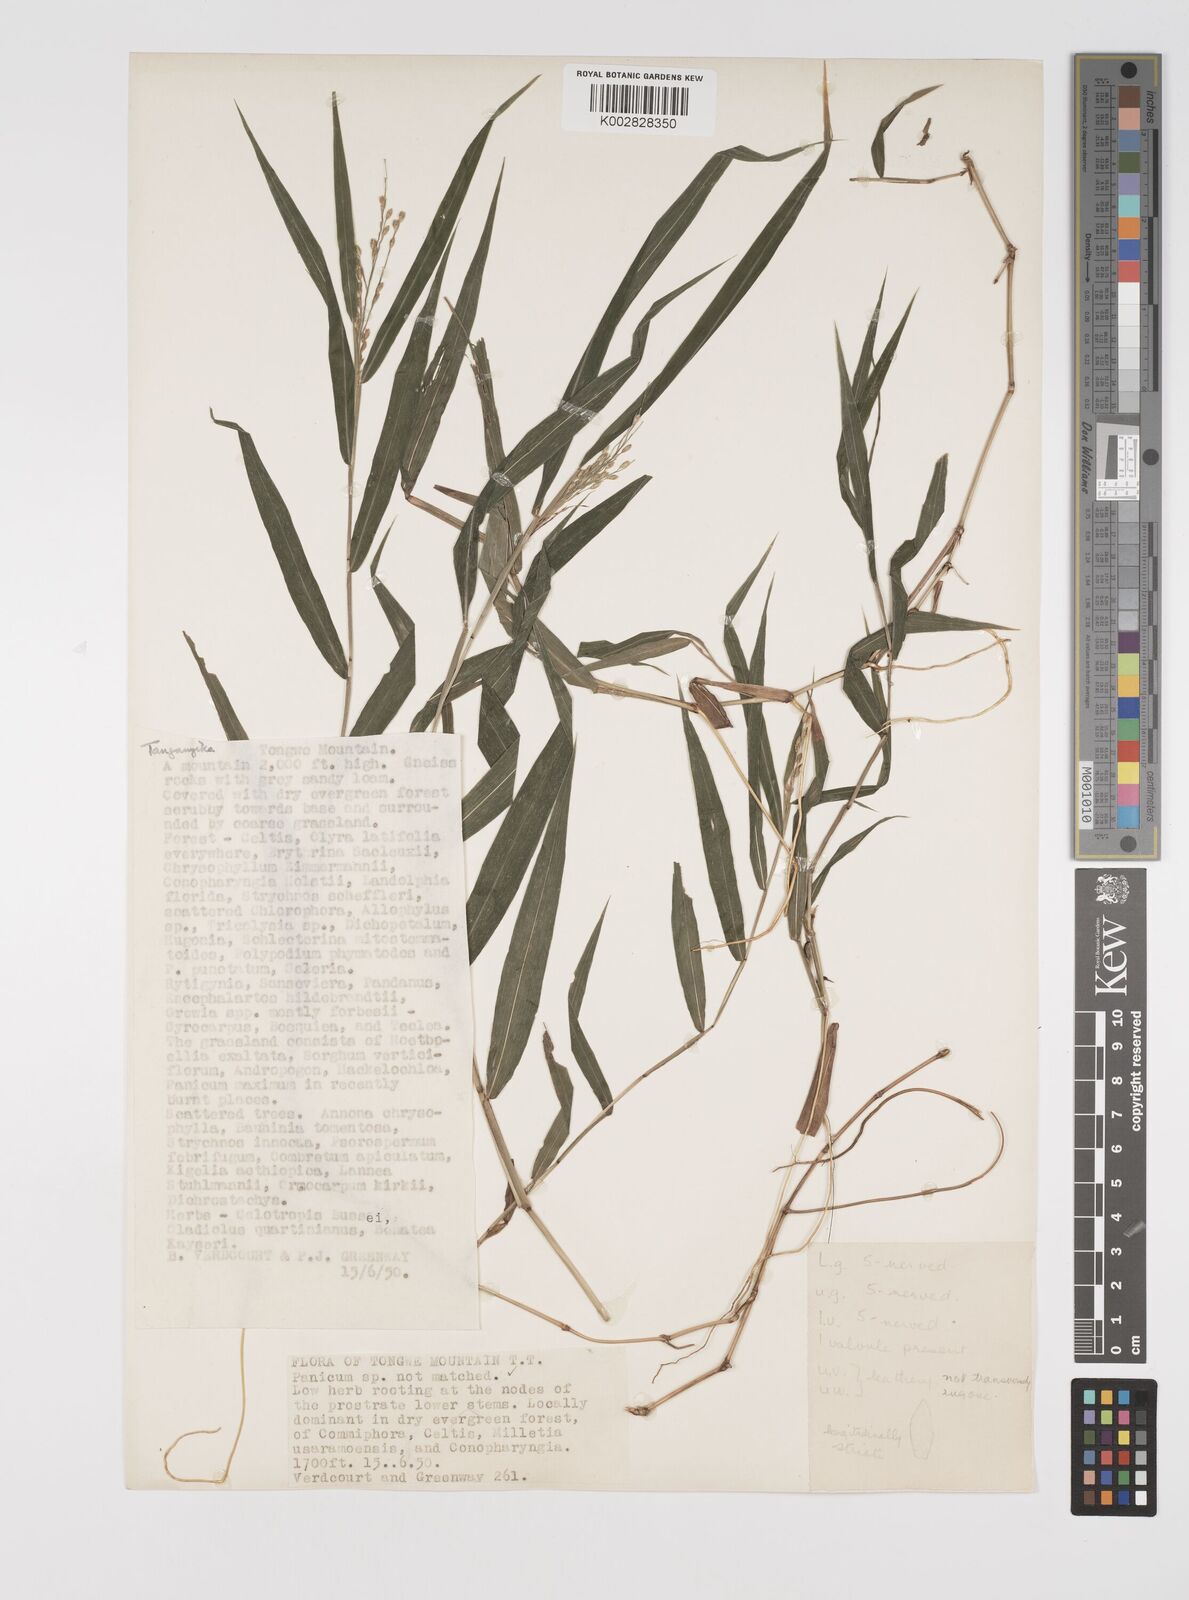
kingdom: Plantae
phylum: Tracheophyta
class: Liliopsida
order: Poales
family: Poaceae
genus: Acroceras
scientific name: Acroceras attenuatum
